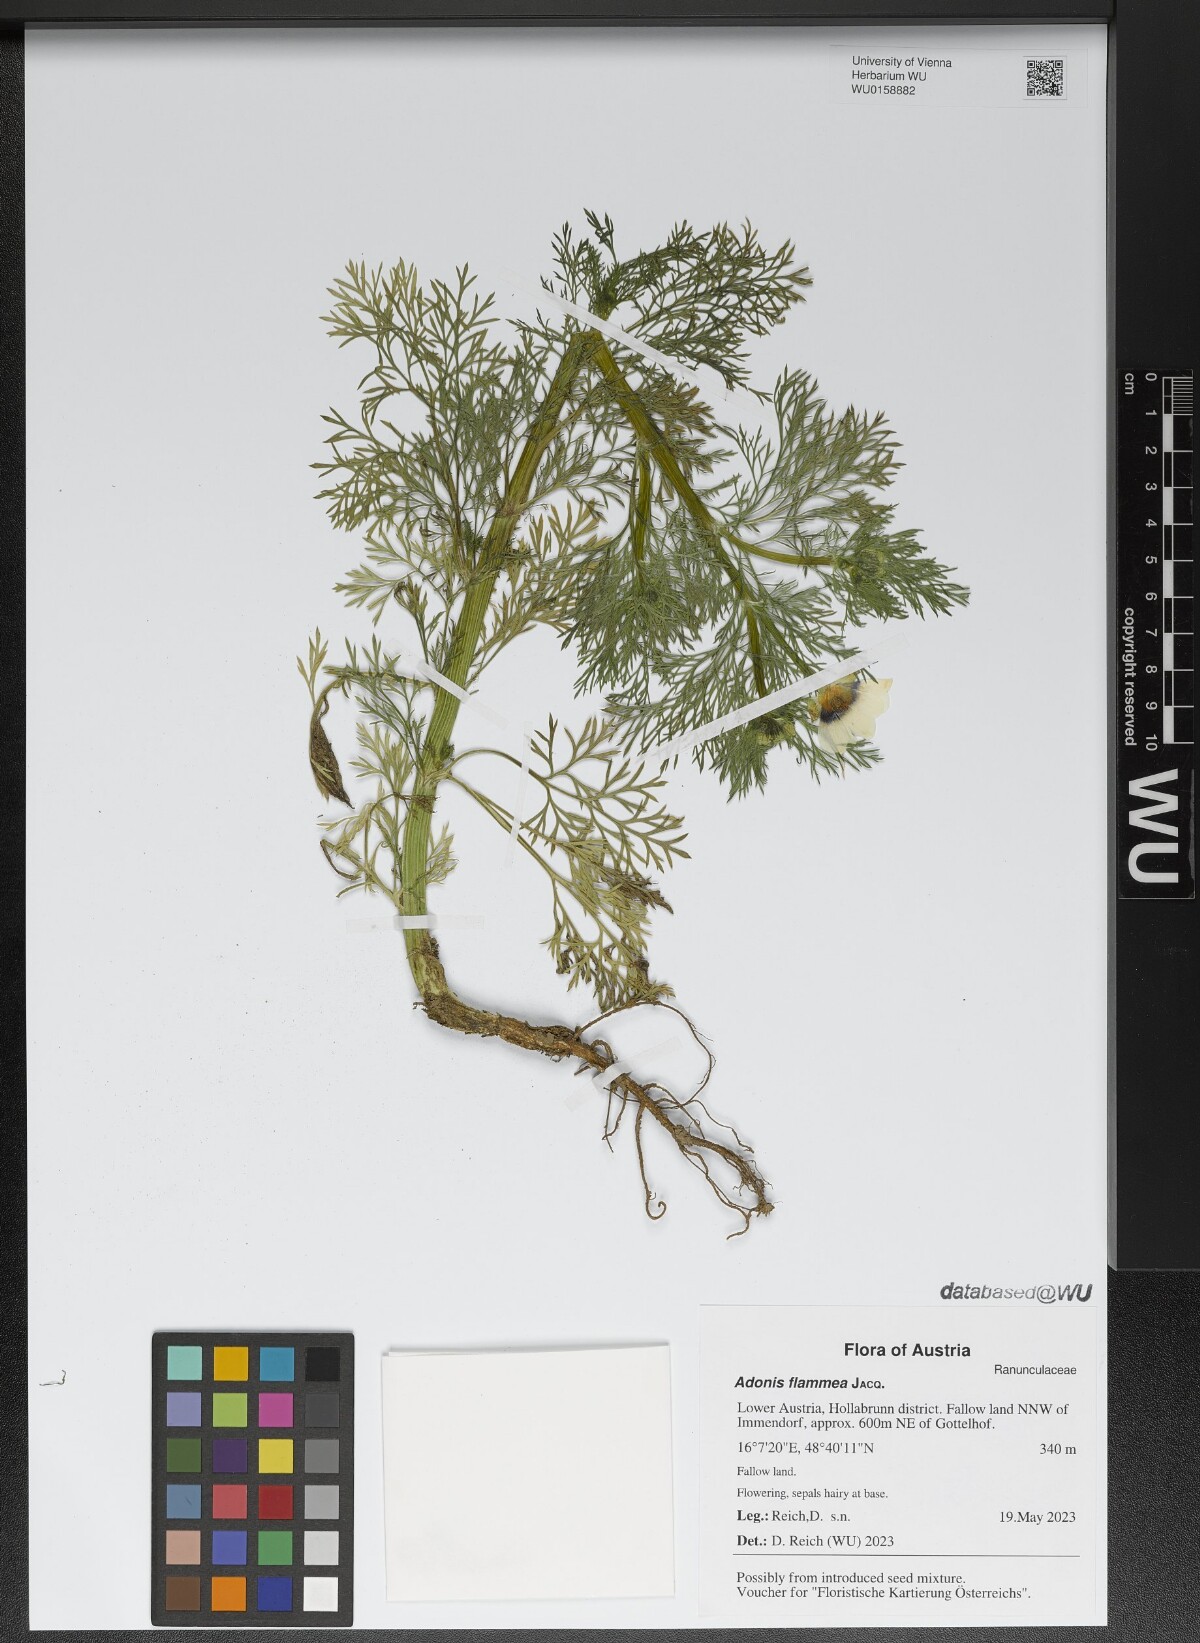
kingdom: Plantae
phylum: Tracheophyta
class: Magnoliopsida
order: Ranunculales
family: Ranunculaceae
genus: Adonis
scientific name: Adonis flammea
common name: Large pheasant's-eye
